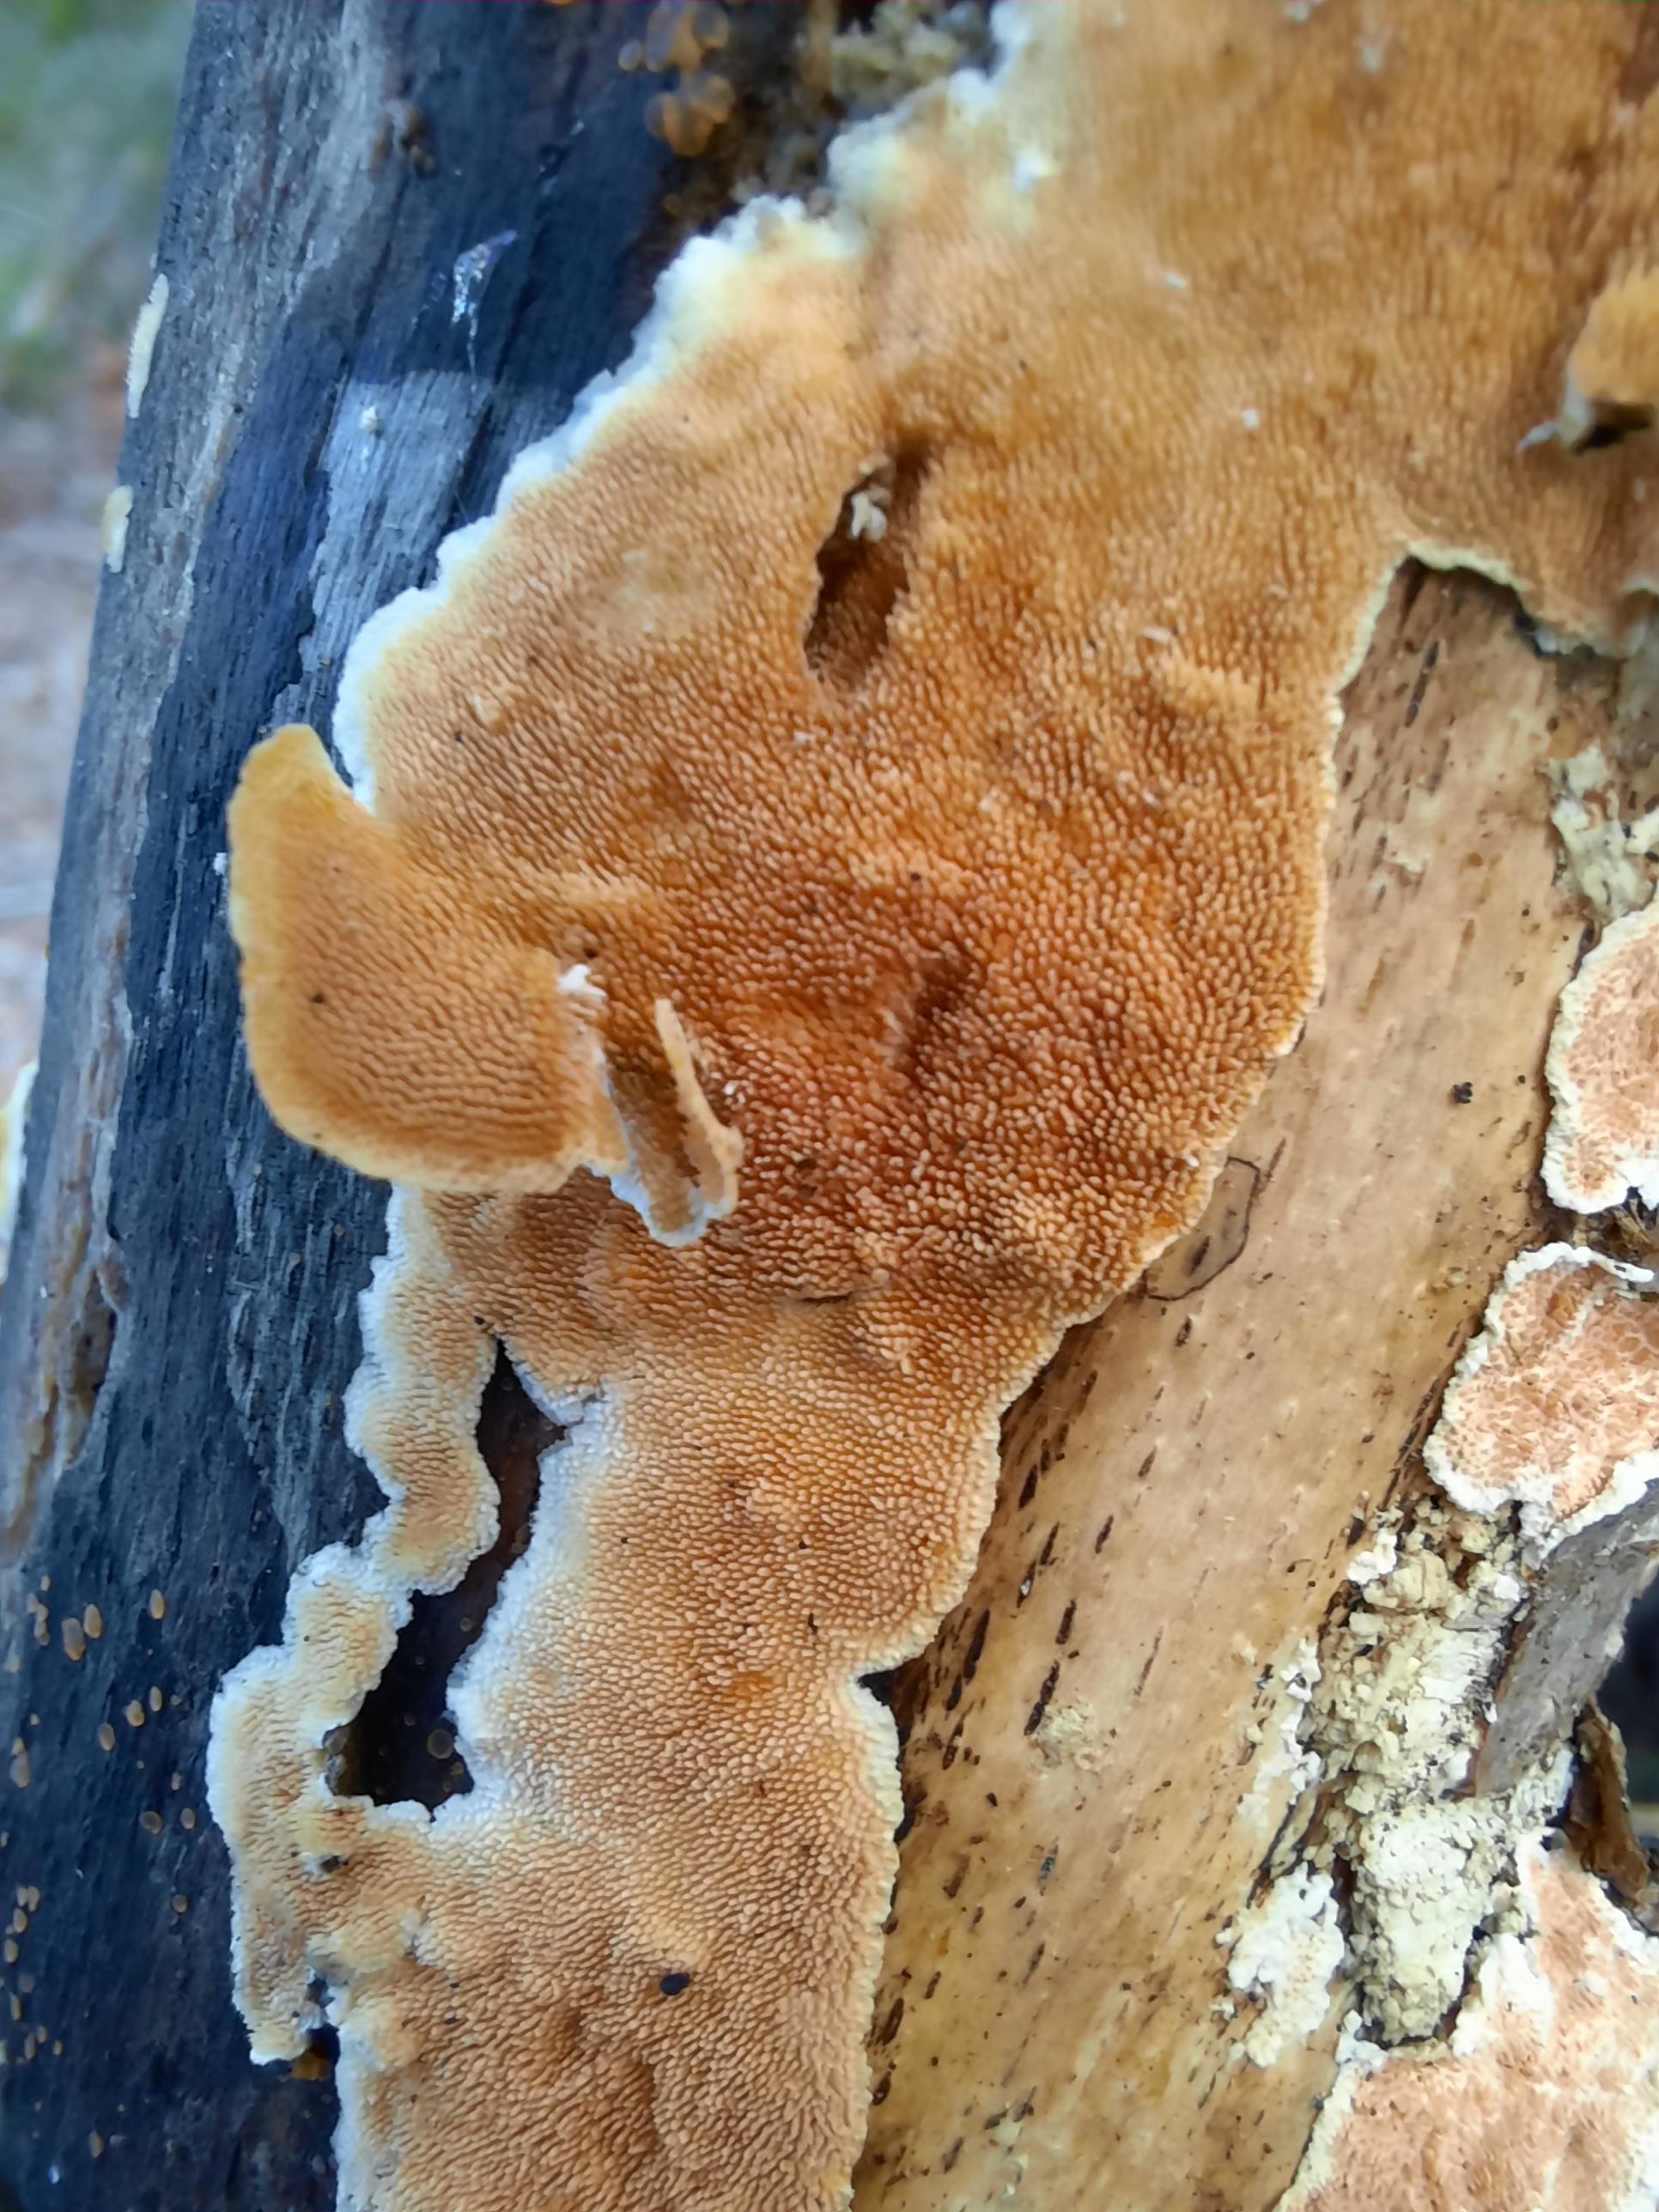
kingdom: Fungi
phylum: Basidiomycota
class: Agaricomycetes
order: Polyporales
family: Steccherinaceae
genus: Steccherinum
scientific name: Steccherinum ochraceum
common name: almindelig skønpig
